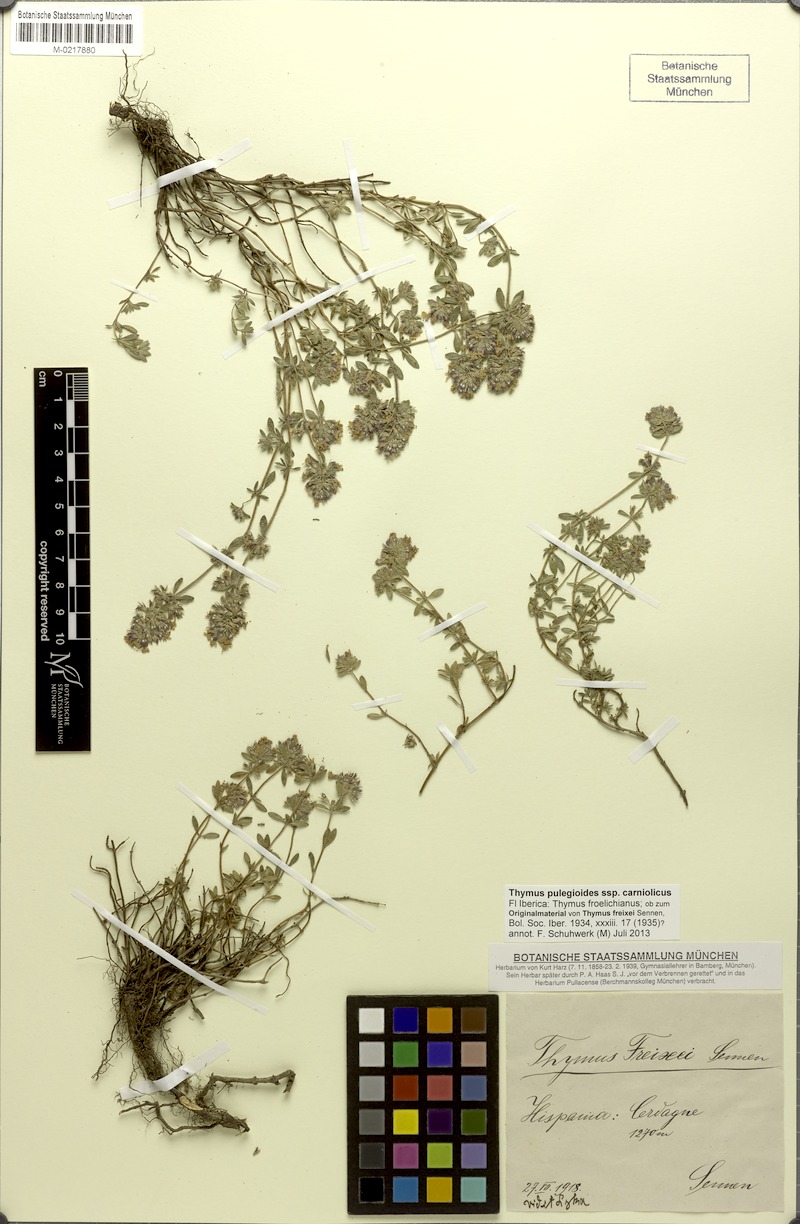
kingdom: Plantae
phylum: Tracheophyta
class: Magnoliopsida
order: Lamiales
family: Lamiaceae
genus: Thymus
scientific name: Thymus pannonicus
